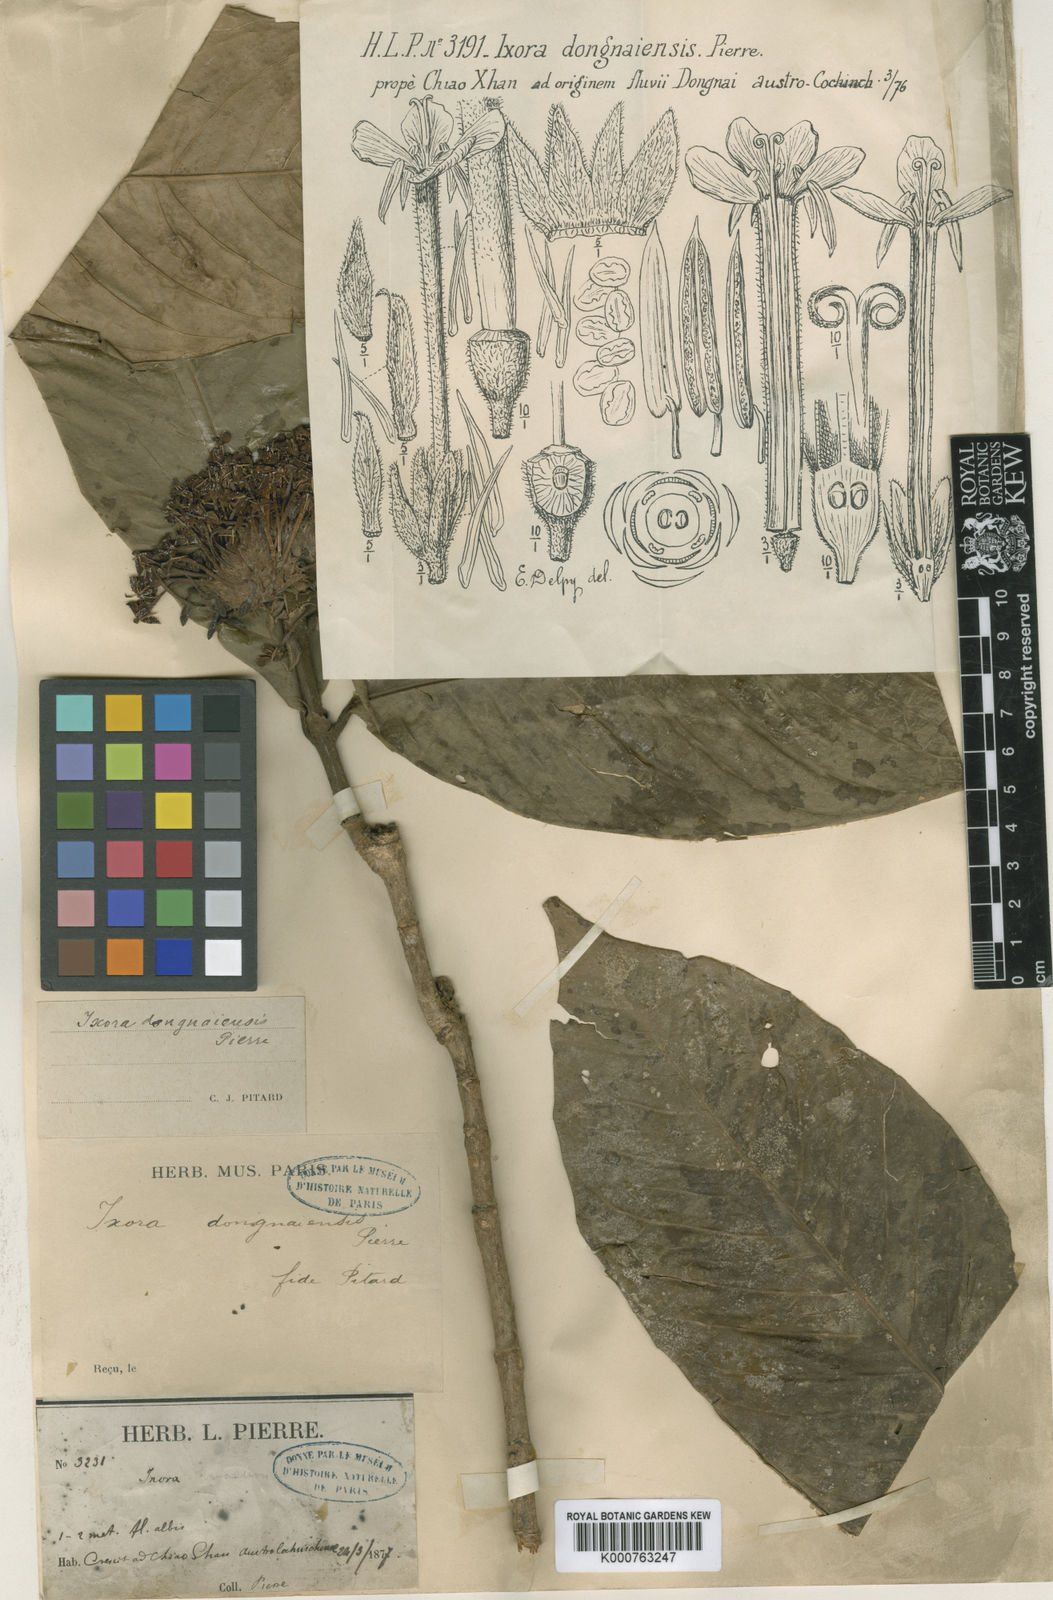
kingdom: Plantae
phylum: Tracheophyta
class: Magnoliopsida
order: Gentianales
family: Rubiaceae
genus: Ixora
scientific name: Ixora dongnaiensis
